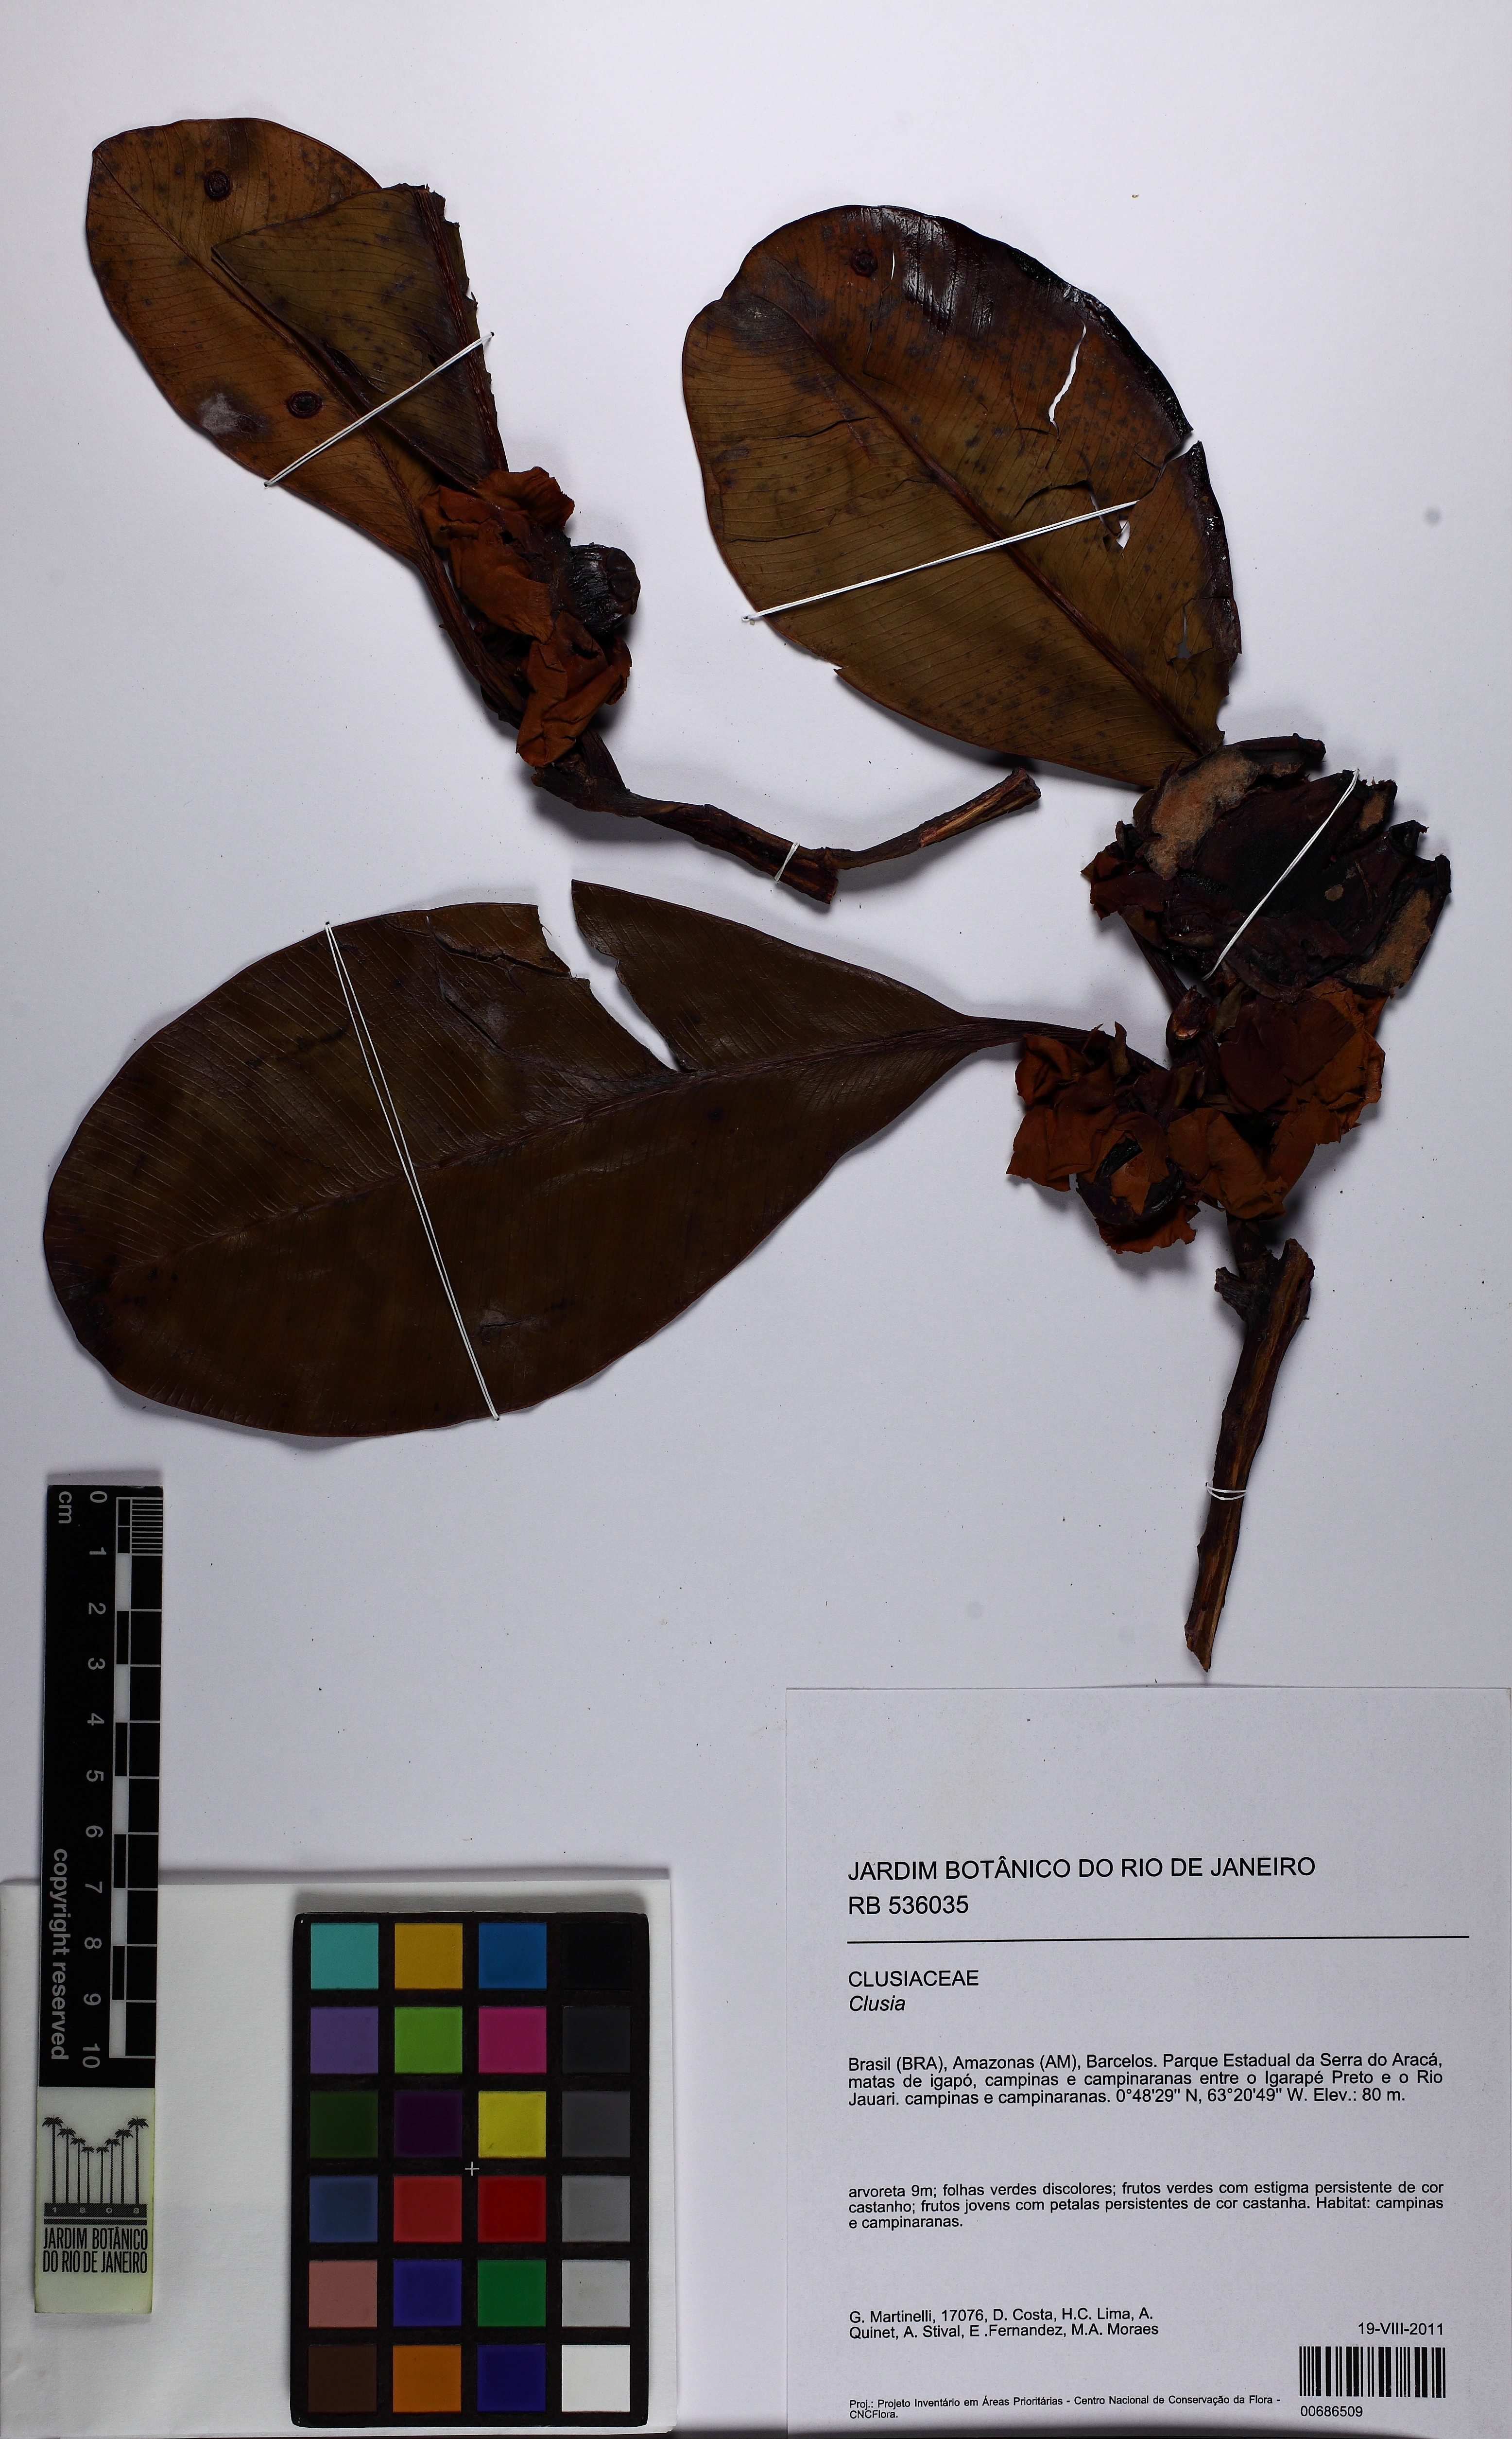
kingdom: Plantae
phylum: Tracheophyta
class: Magnoliopsida
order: Malpighiales
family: Clusiaceae
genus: Clusia
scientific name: Clusia
